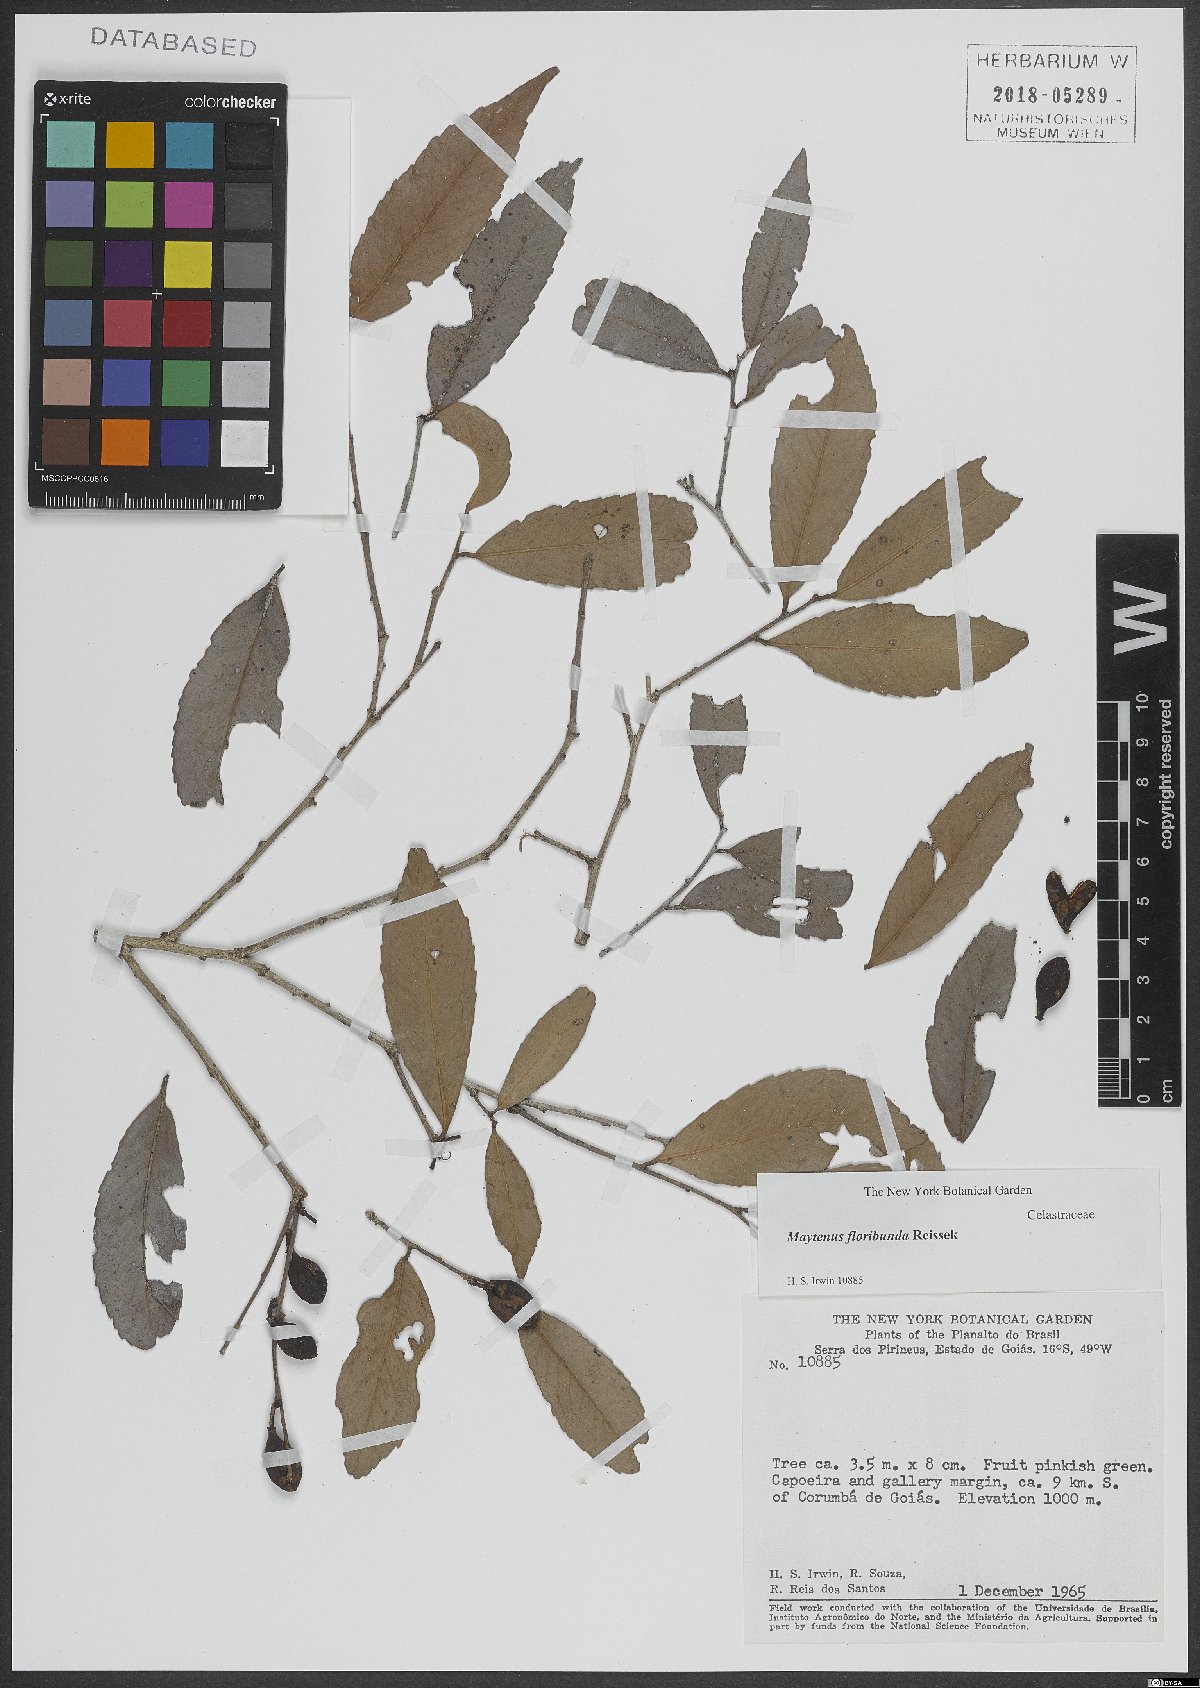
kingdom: Plantae
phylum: Tracheophyta
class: Magnoliopsida
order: Celastrales
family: Celastraceae
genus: Monteverdia
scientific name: Monteverdia floribunda
